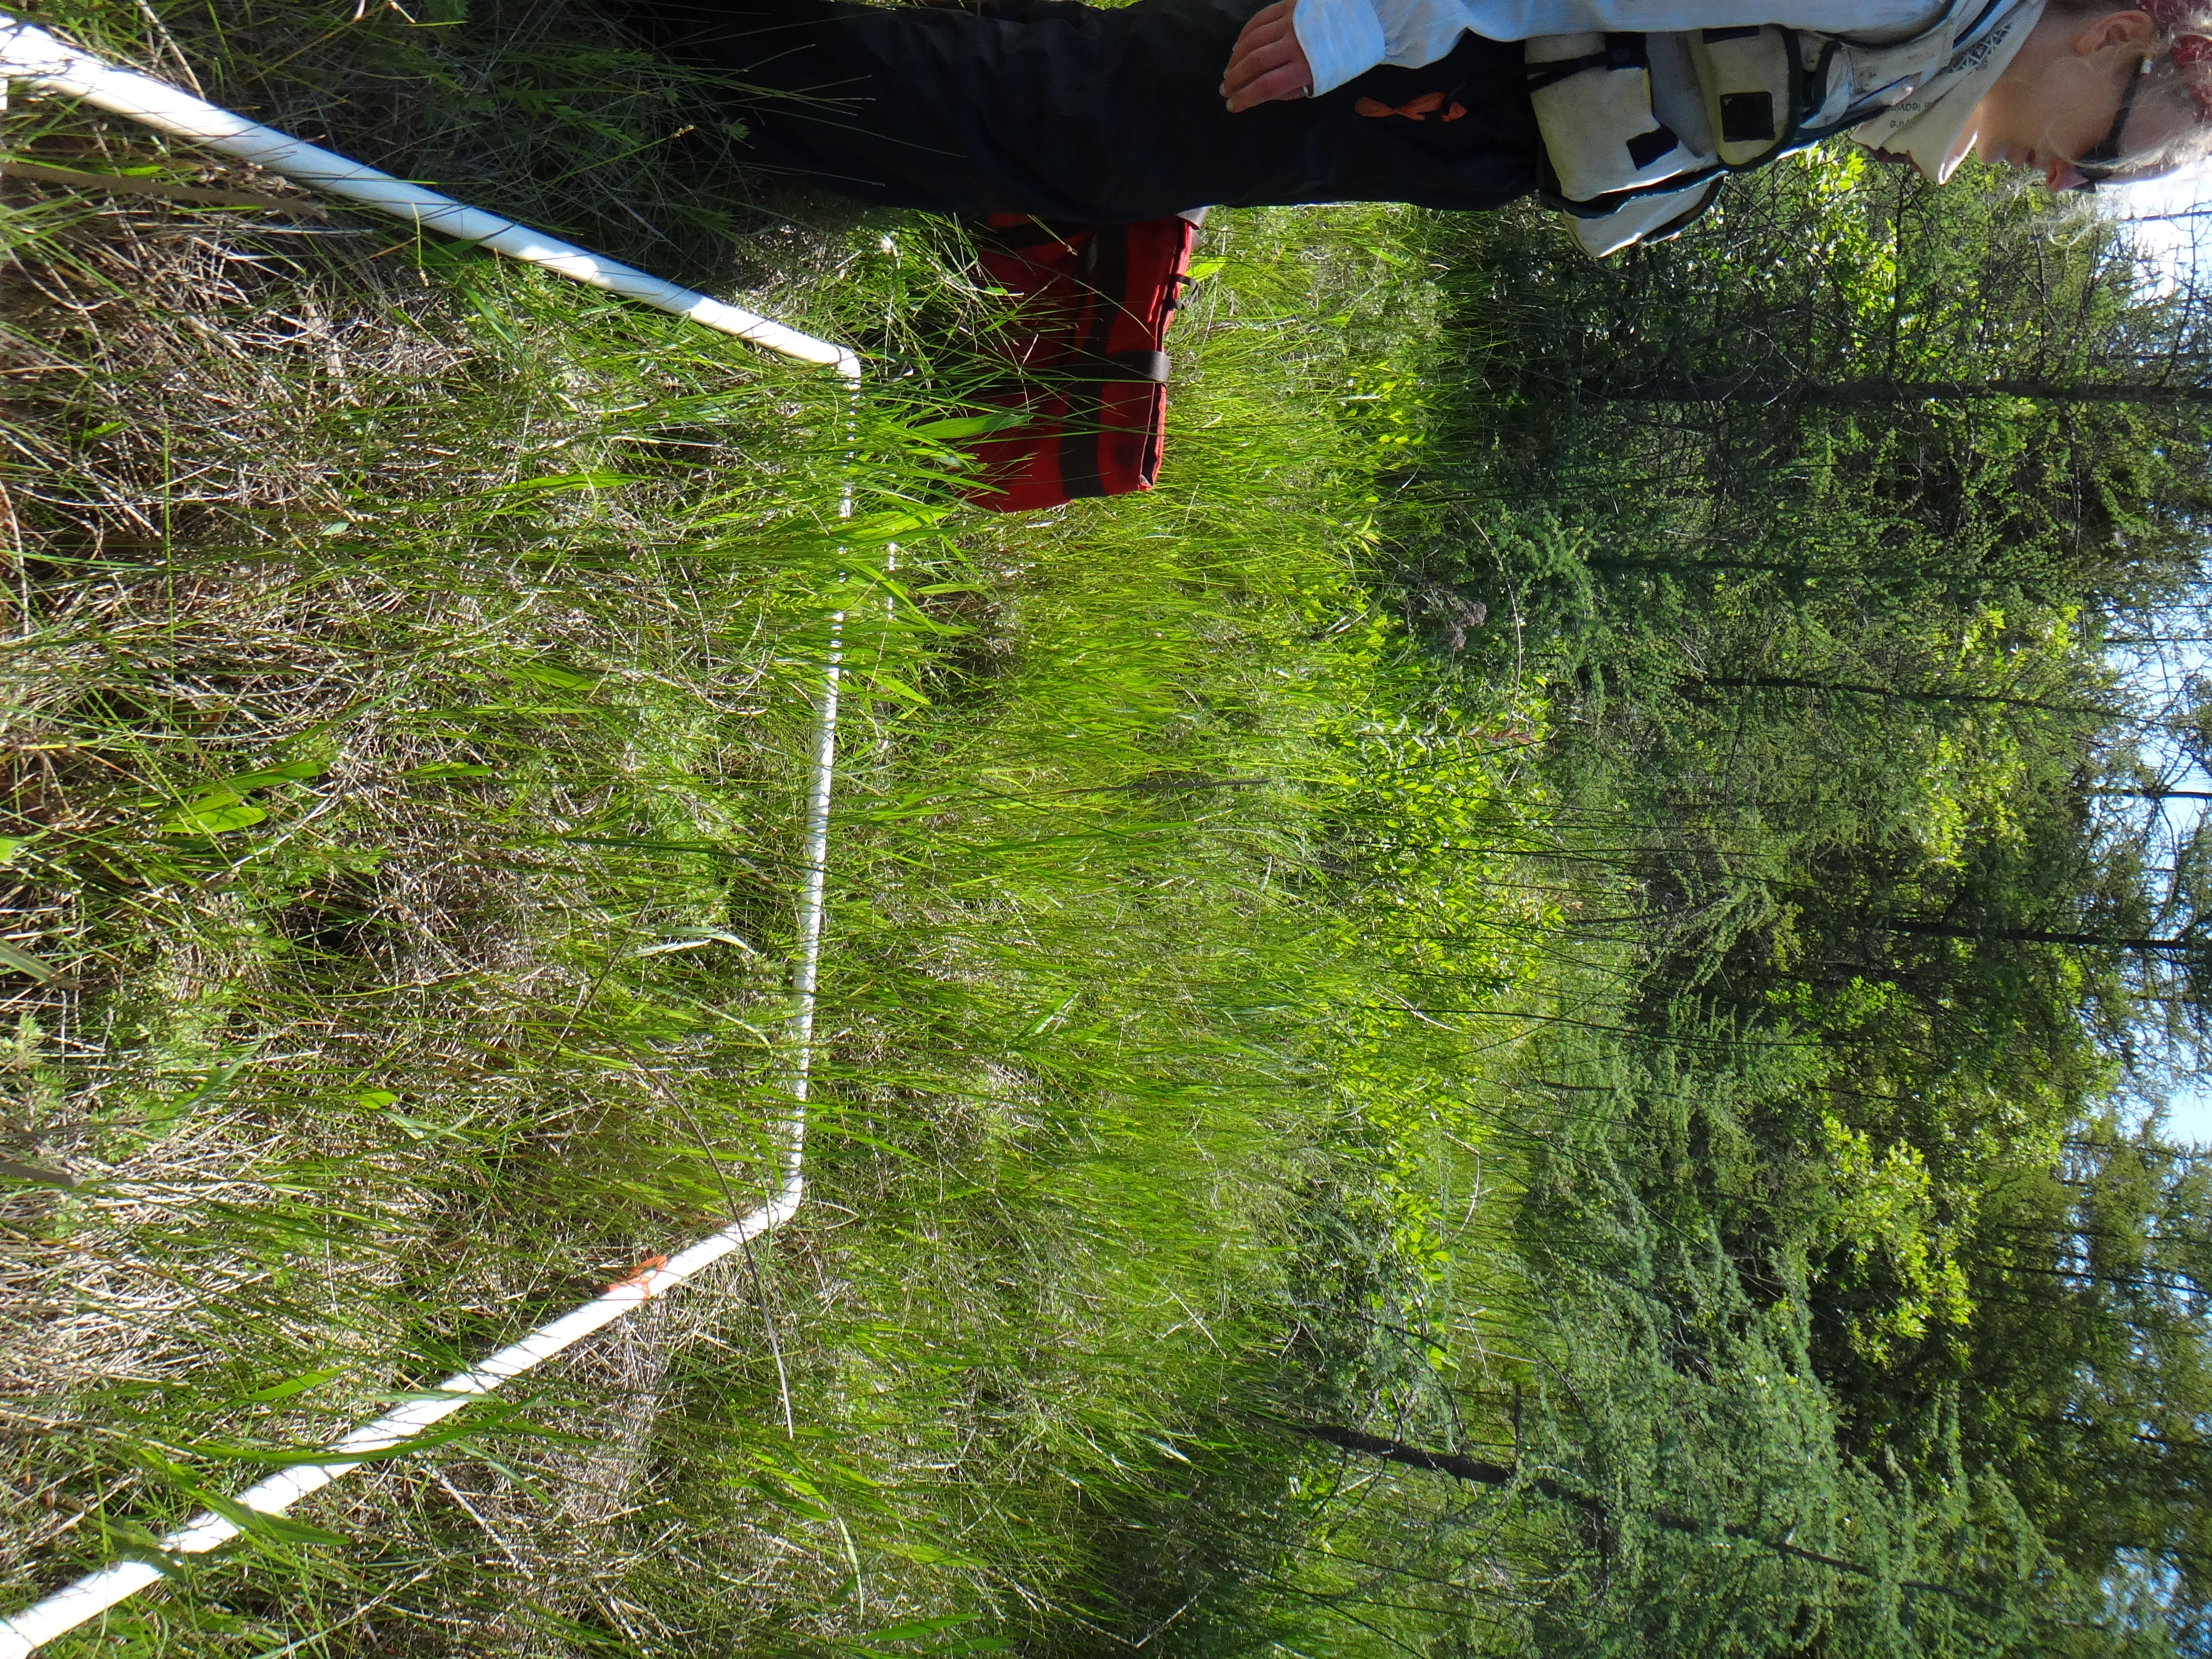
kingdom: Plantae
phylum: Tracheophyta
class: Magnoliopsida
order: Asterales
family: Asteraceae
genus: Solidago
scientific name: Solidago gigantea
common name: Giant goldenrod
